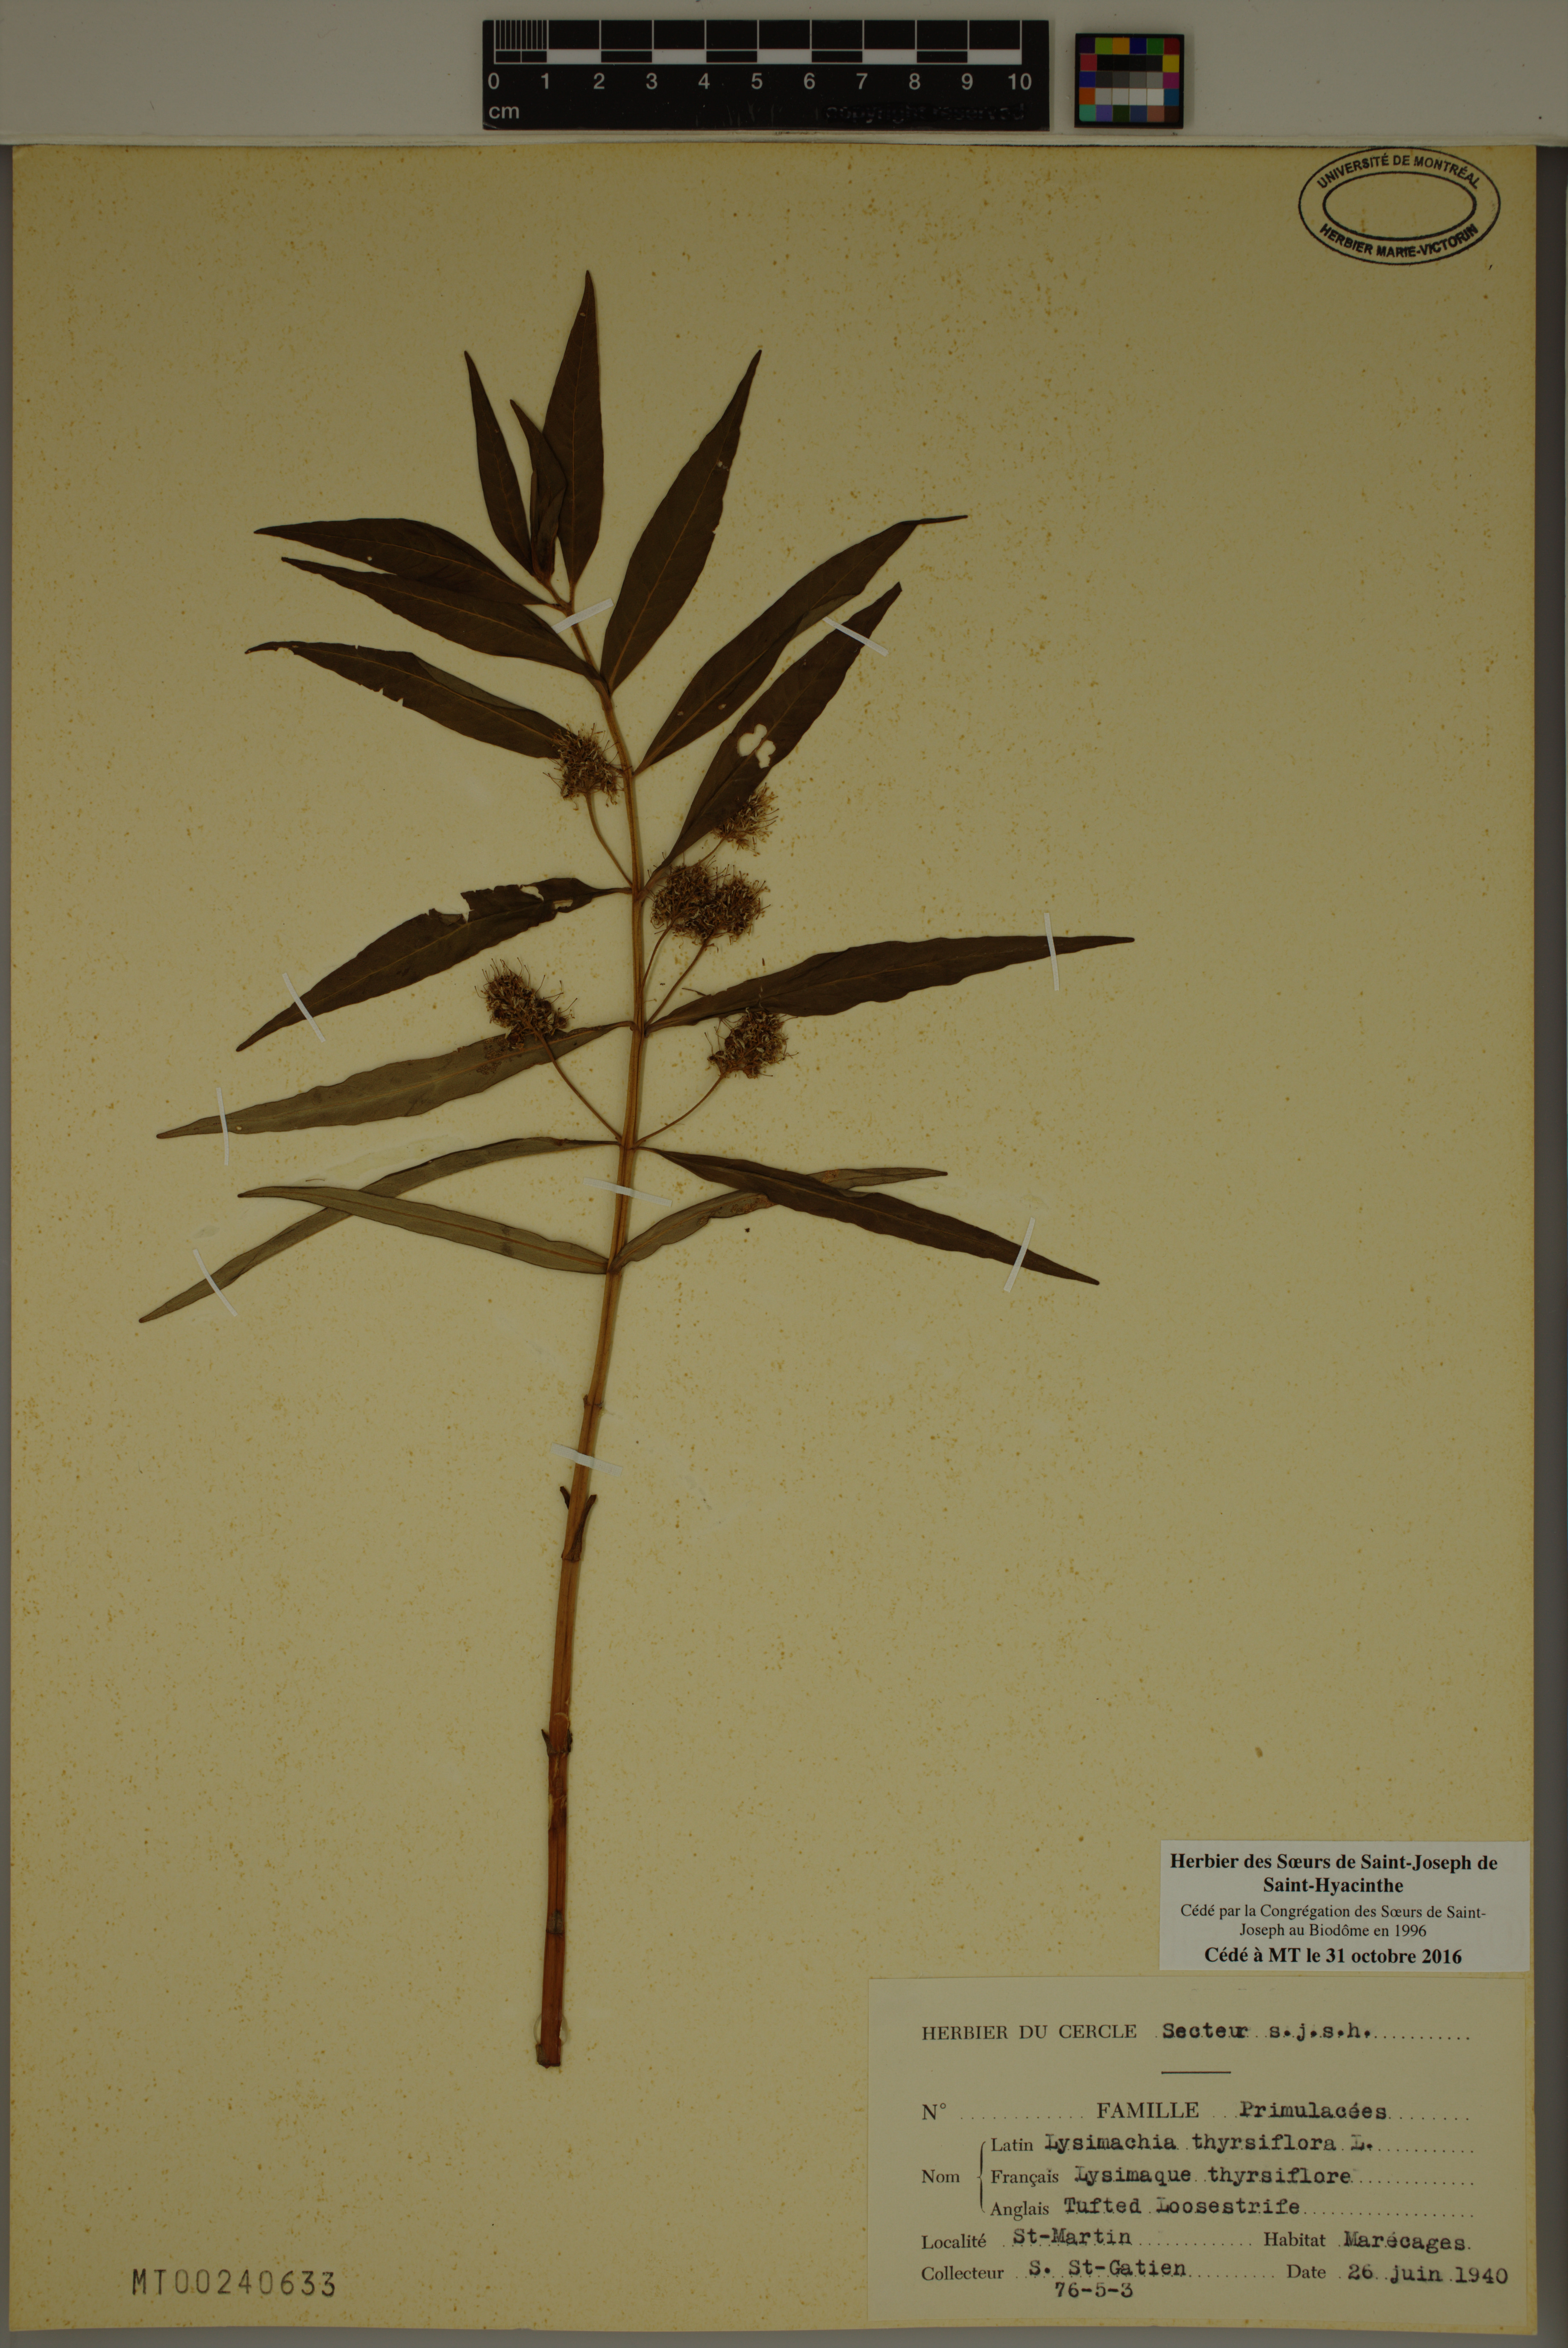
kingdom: Plantae
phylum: Tracheophyta
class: Magnoliopsida
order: Ericales
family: Primulaceae
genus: Lysimachia
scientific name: Lysimachia thyrsiflora
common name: Tufted loosestrife
